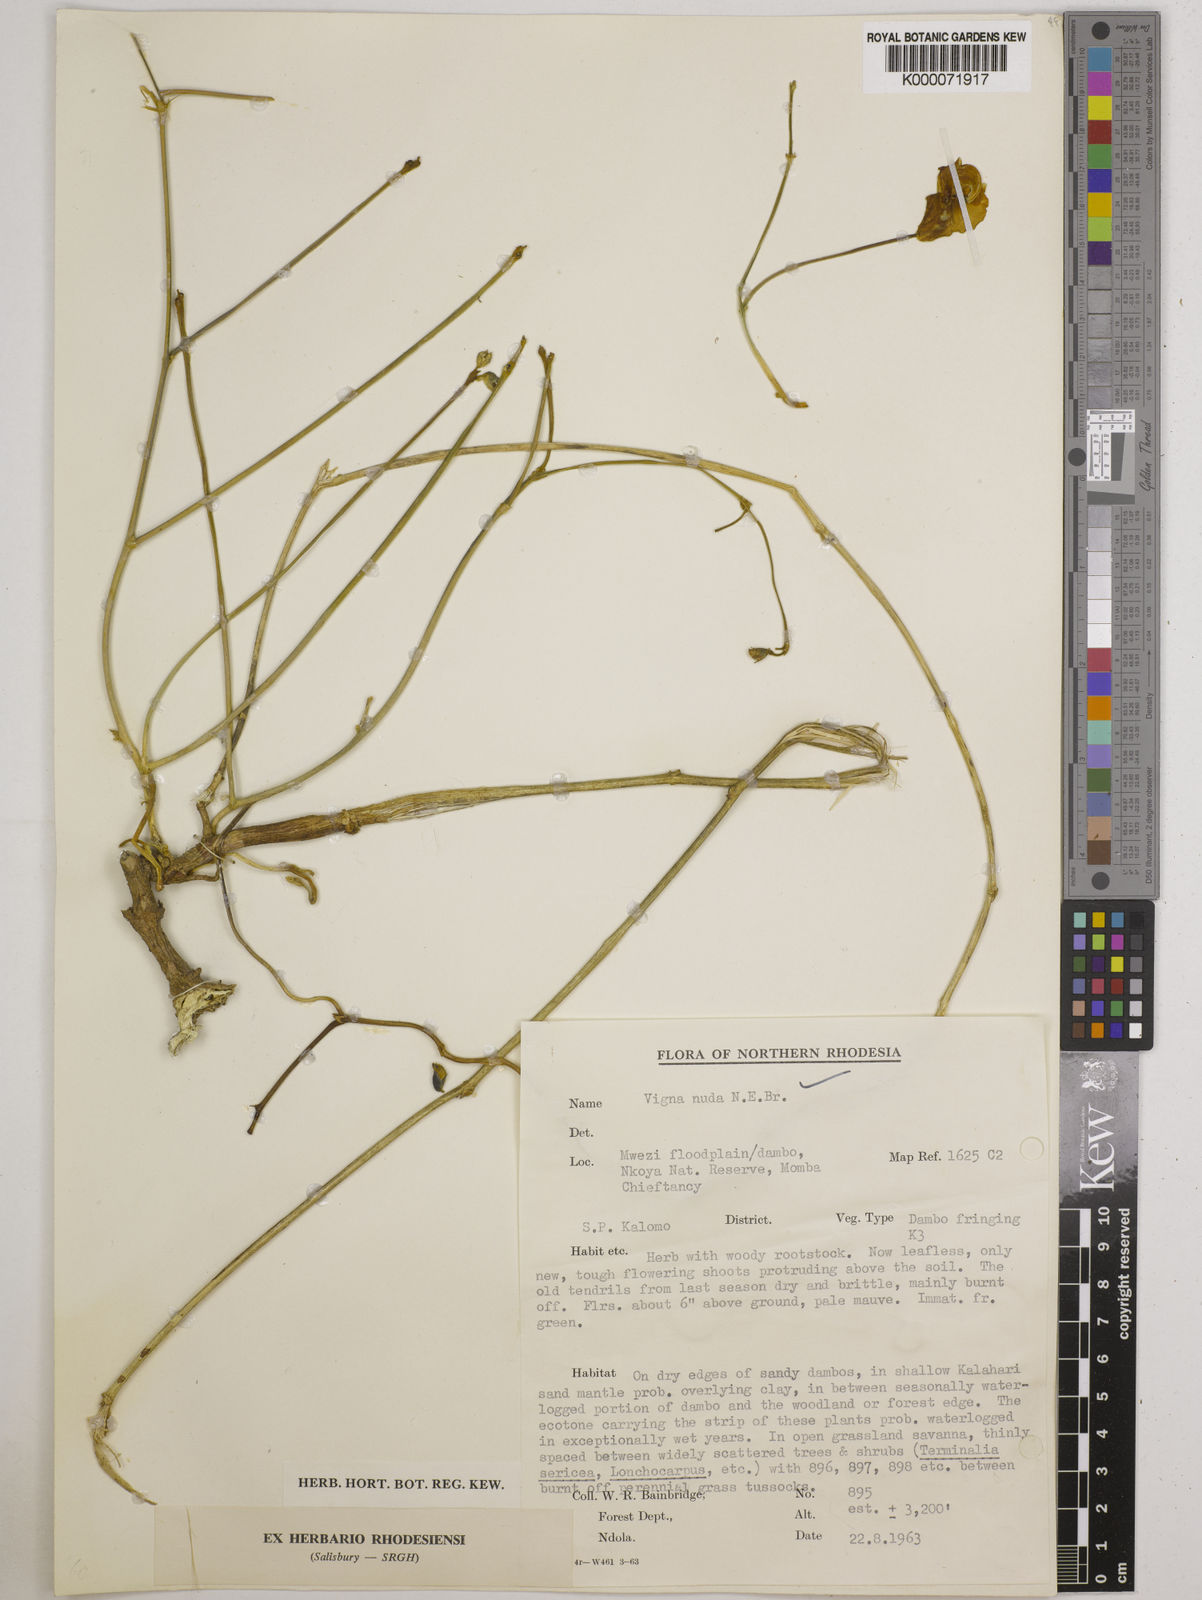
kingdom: Plantae
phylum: Tracheophyta
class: Magnoliopsida
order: Fabales
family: Fabaceae
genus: Vigna
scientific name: Vigna antunesii
